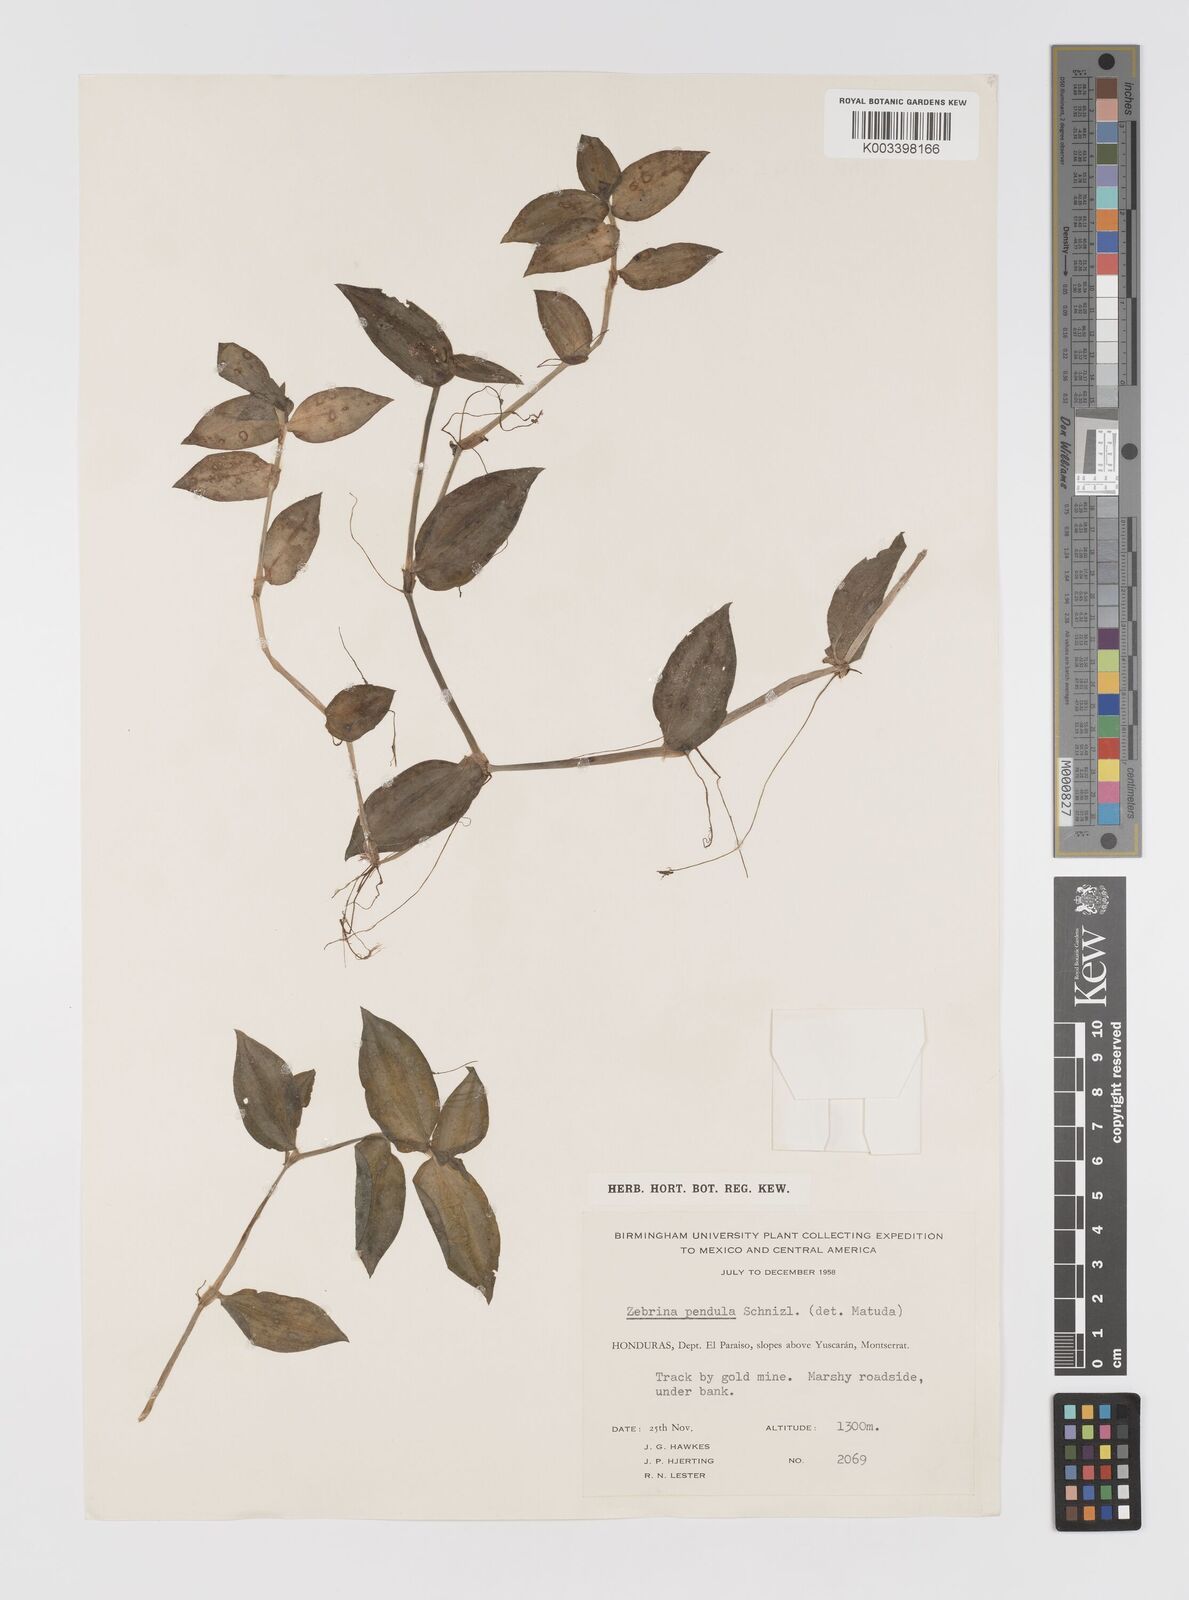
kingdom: Plantae
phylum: Tracheophyta
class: Liliopsida
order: Commelinales
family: Commelinaceae
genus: Tradescantia
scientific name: Tradescantia zebrina
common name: Inchplant
